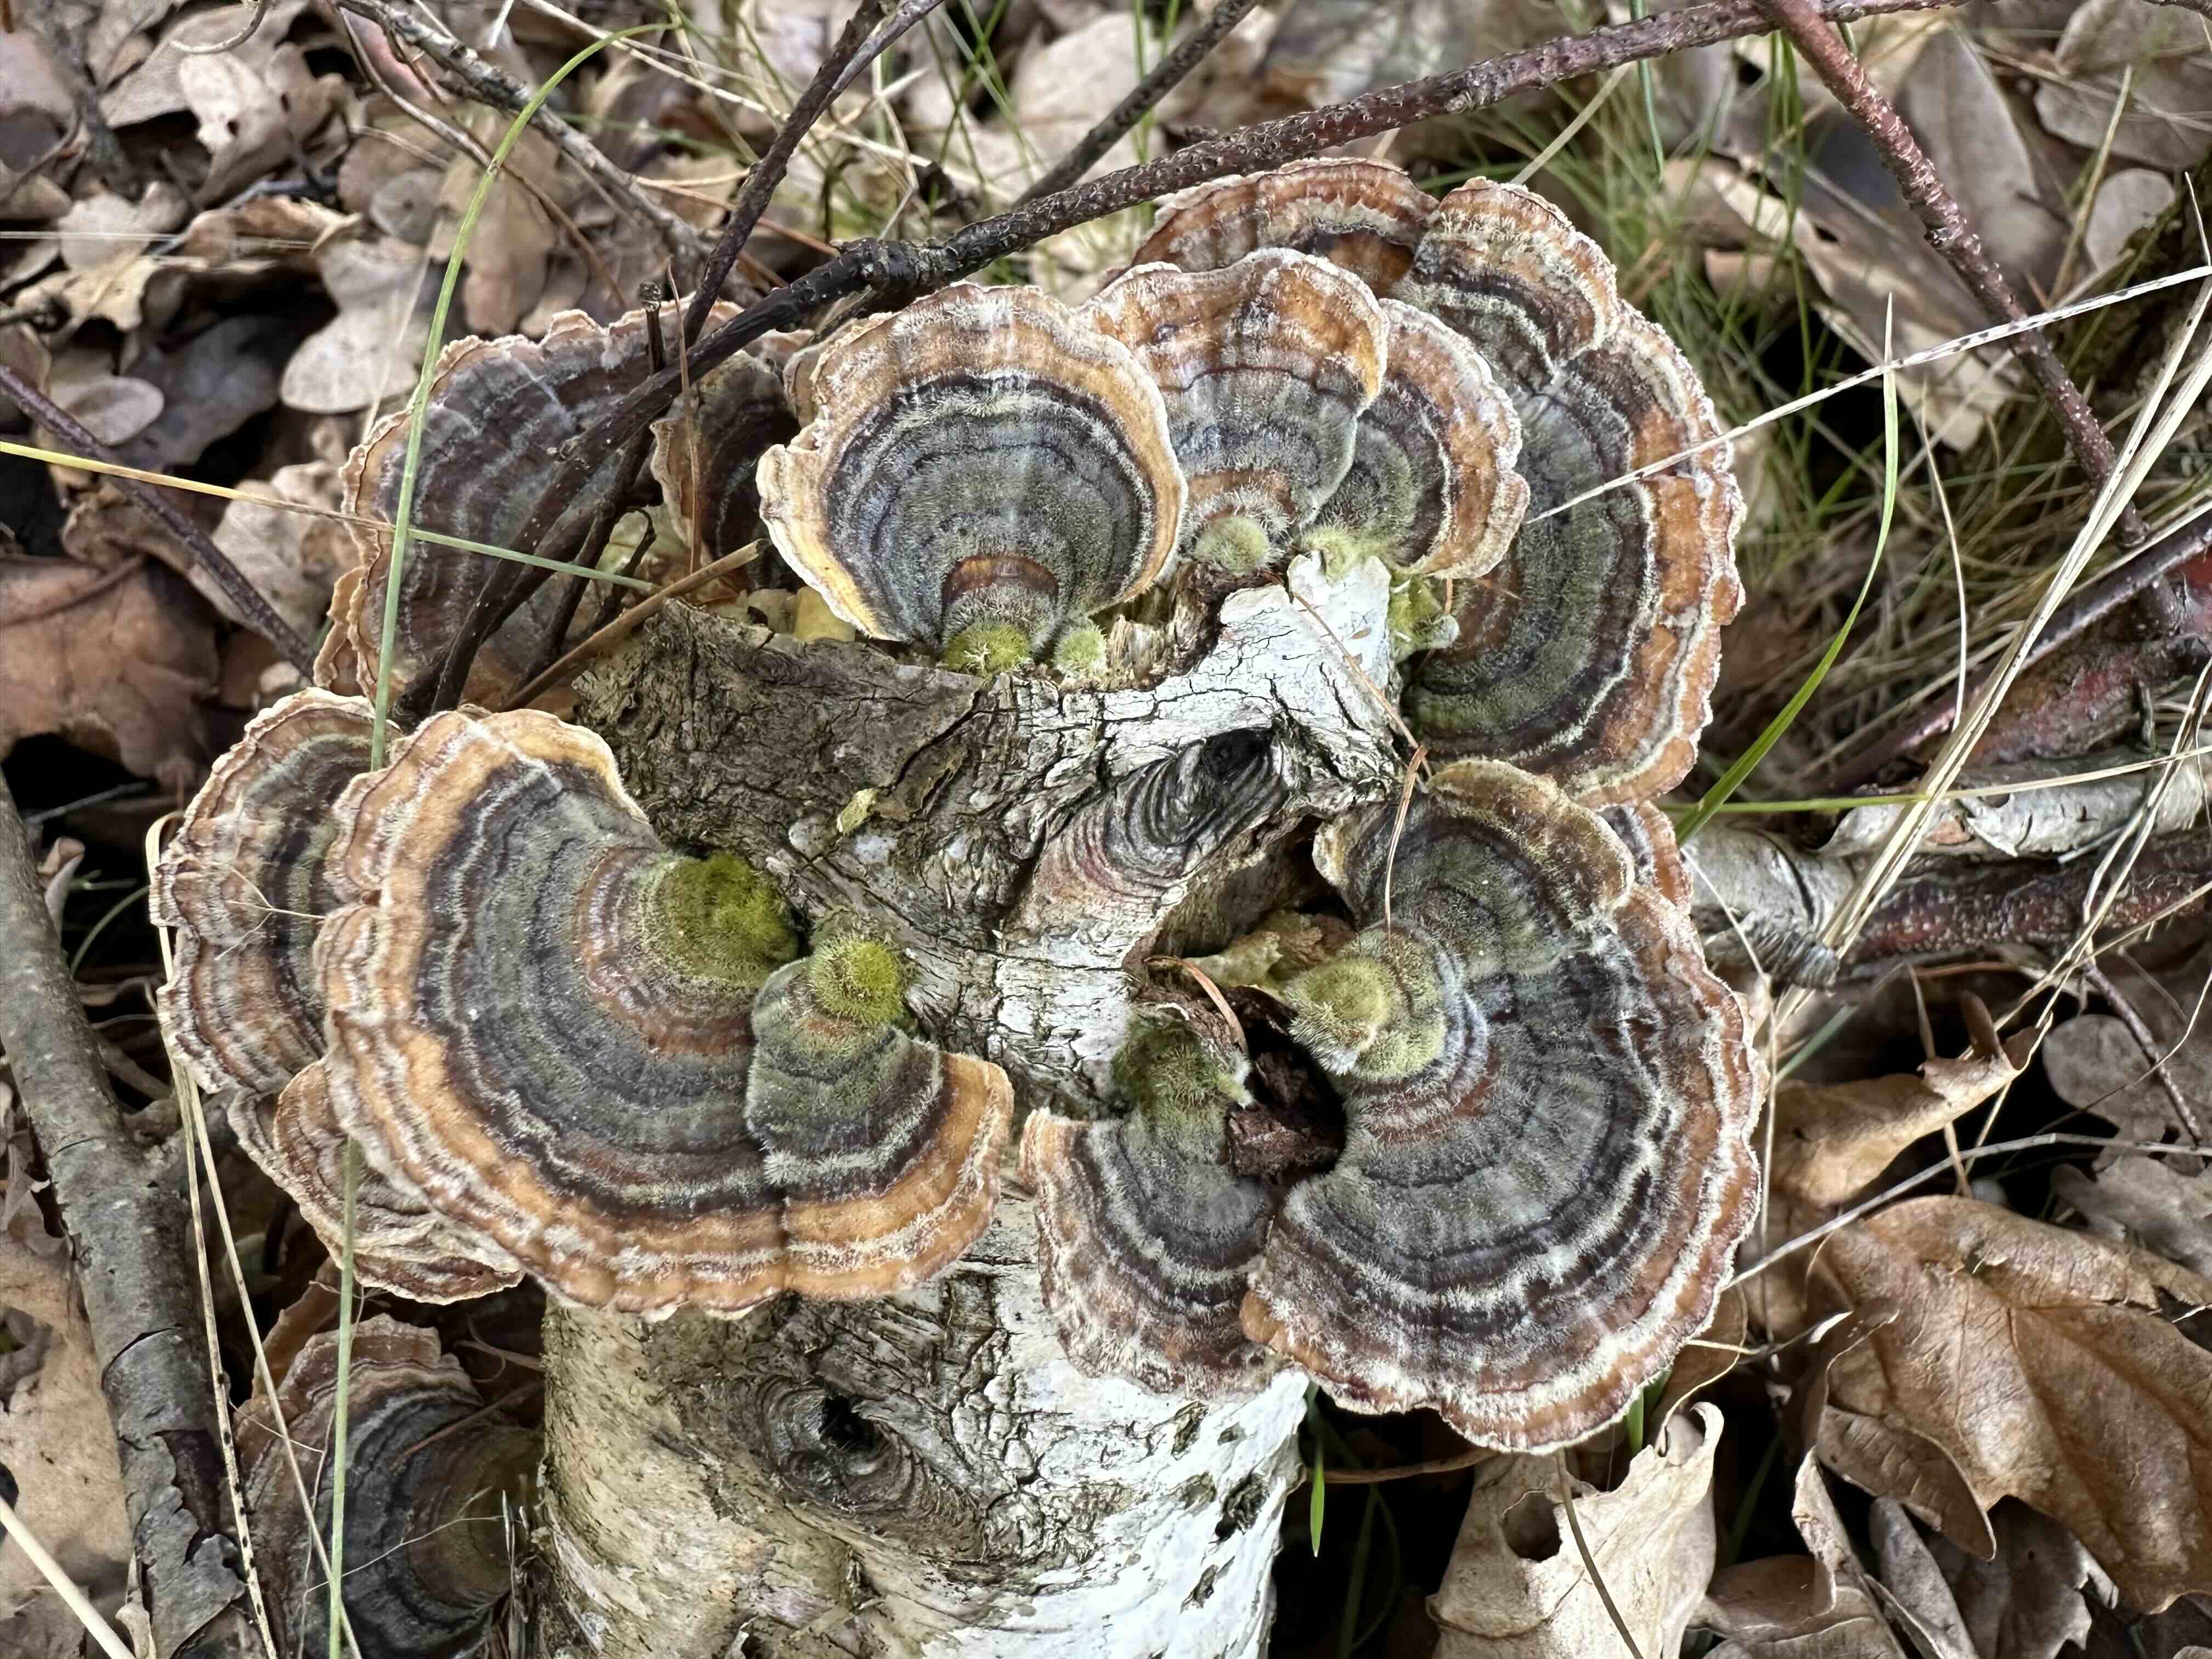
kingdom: Fungi
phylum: Basidiomycota
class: Agaricomycetes
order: Polyporales
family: Polyporaceae
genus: Trametes
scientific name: Trametes versicolor
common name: broget læderporesvamp
